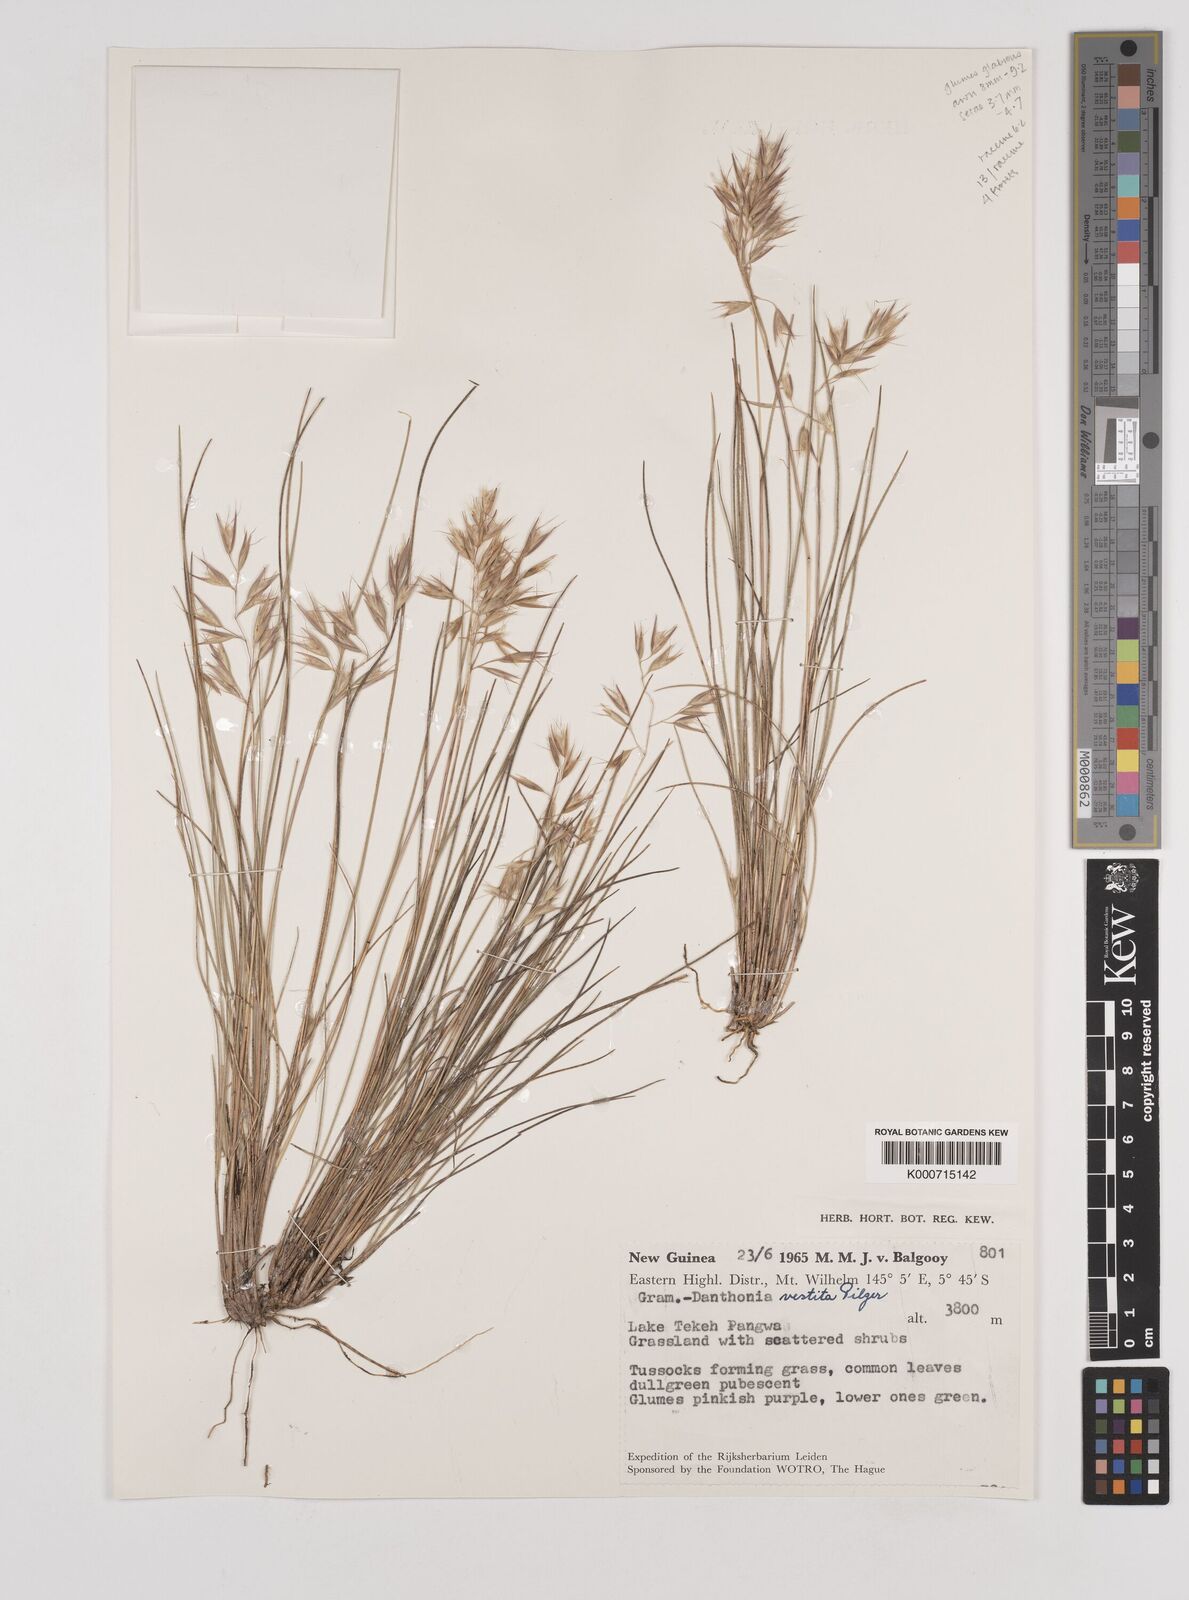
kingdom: Plantae
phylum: Tracheophyta
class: Liliopsida
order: Poales
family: Poaceae
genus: Rytidosperma
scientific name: Rytidosperma vestitum
